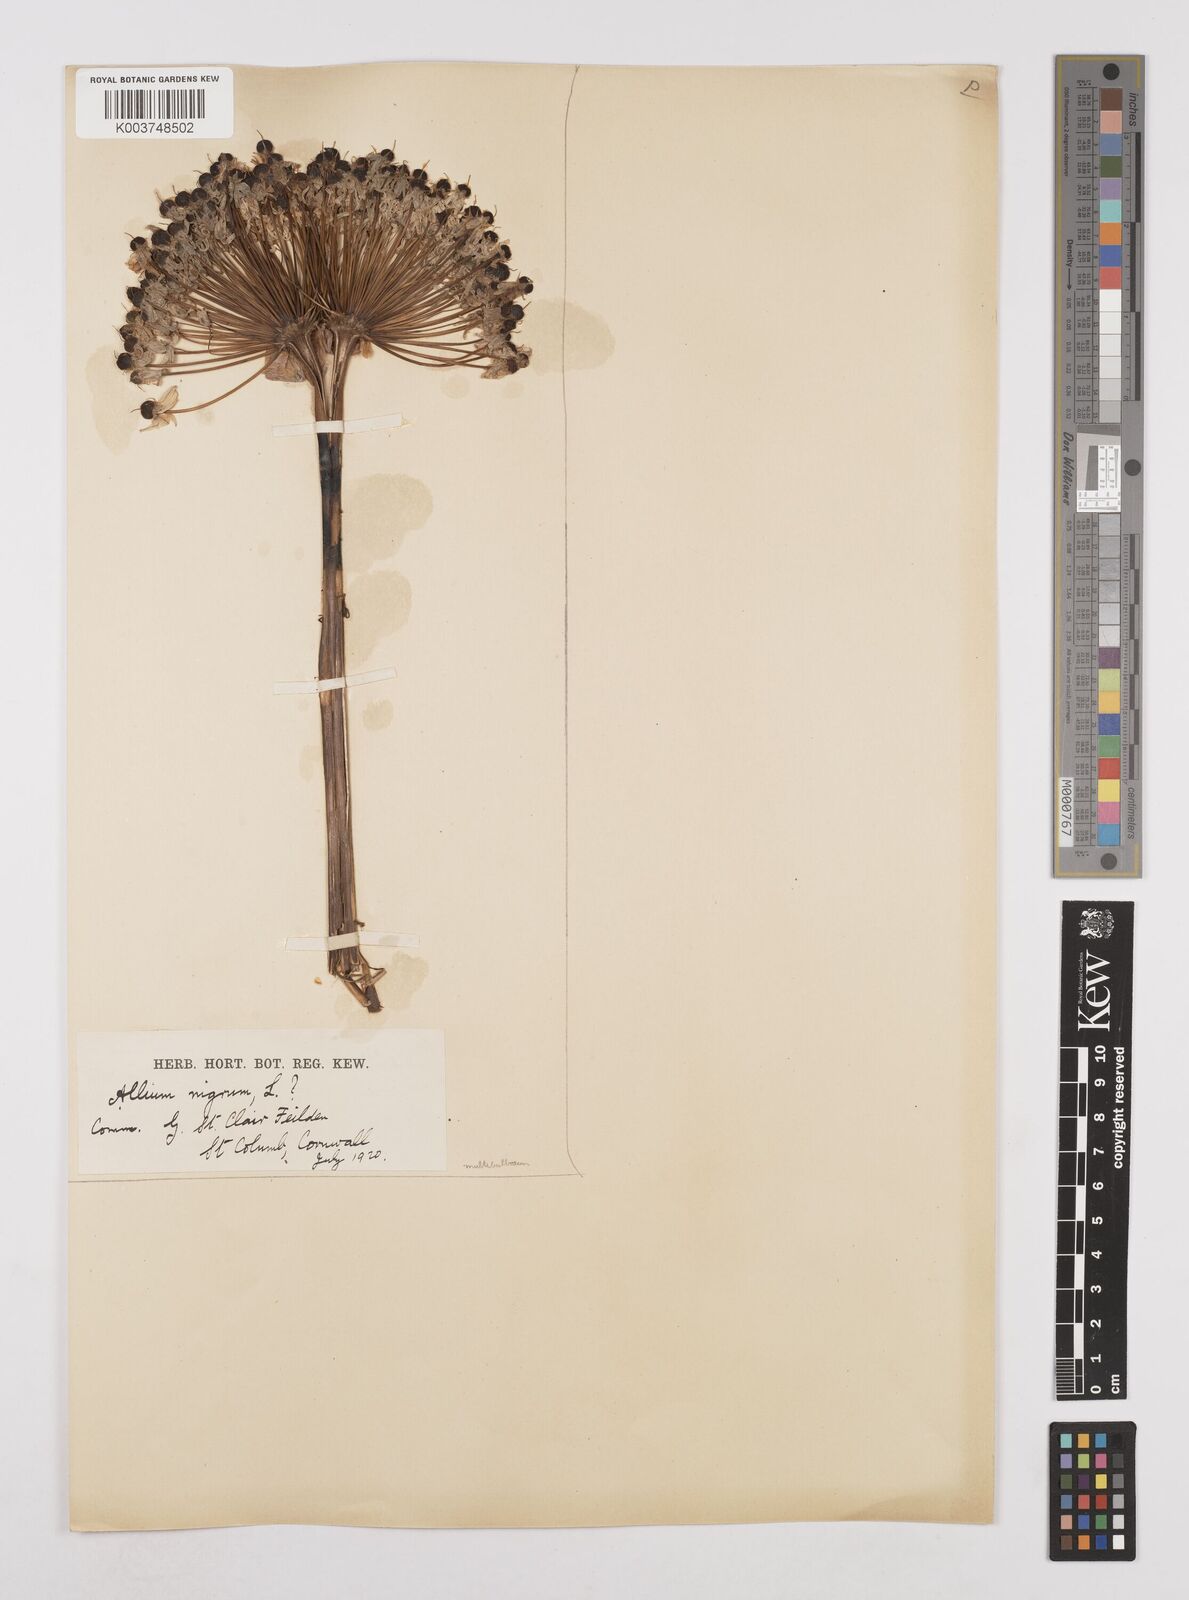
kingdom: Plantae
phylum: Tracheophyta
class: Liliopsida
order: Asparagales
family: Amaryllidaceae
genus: Allium
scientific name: Allium multibulbosum
